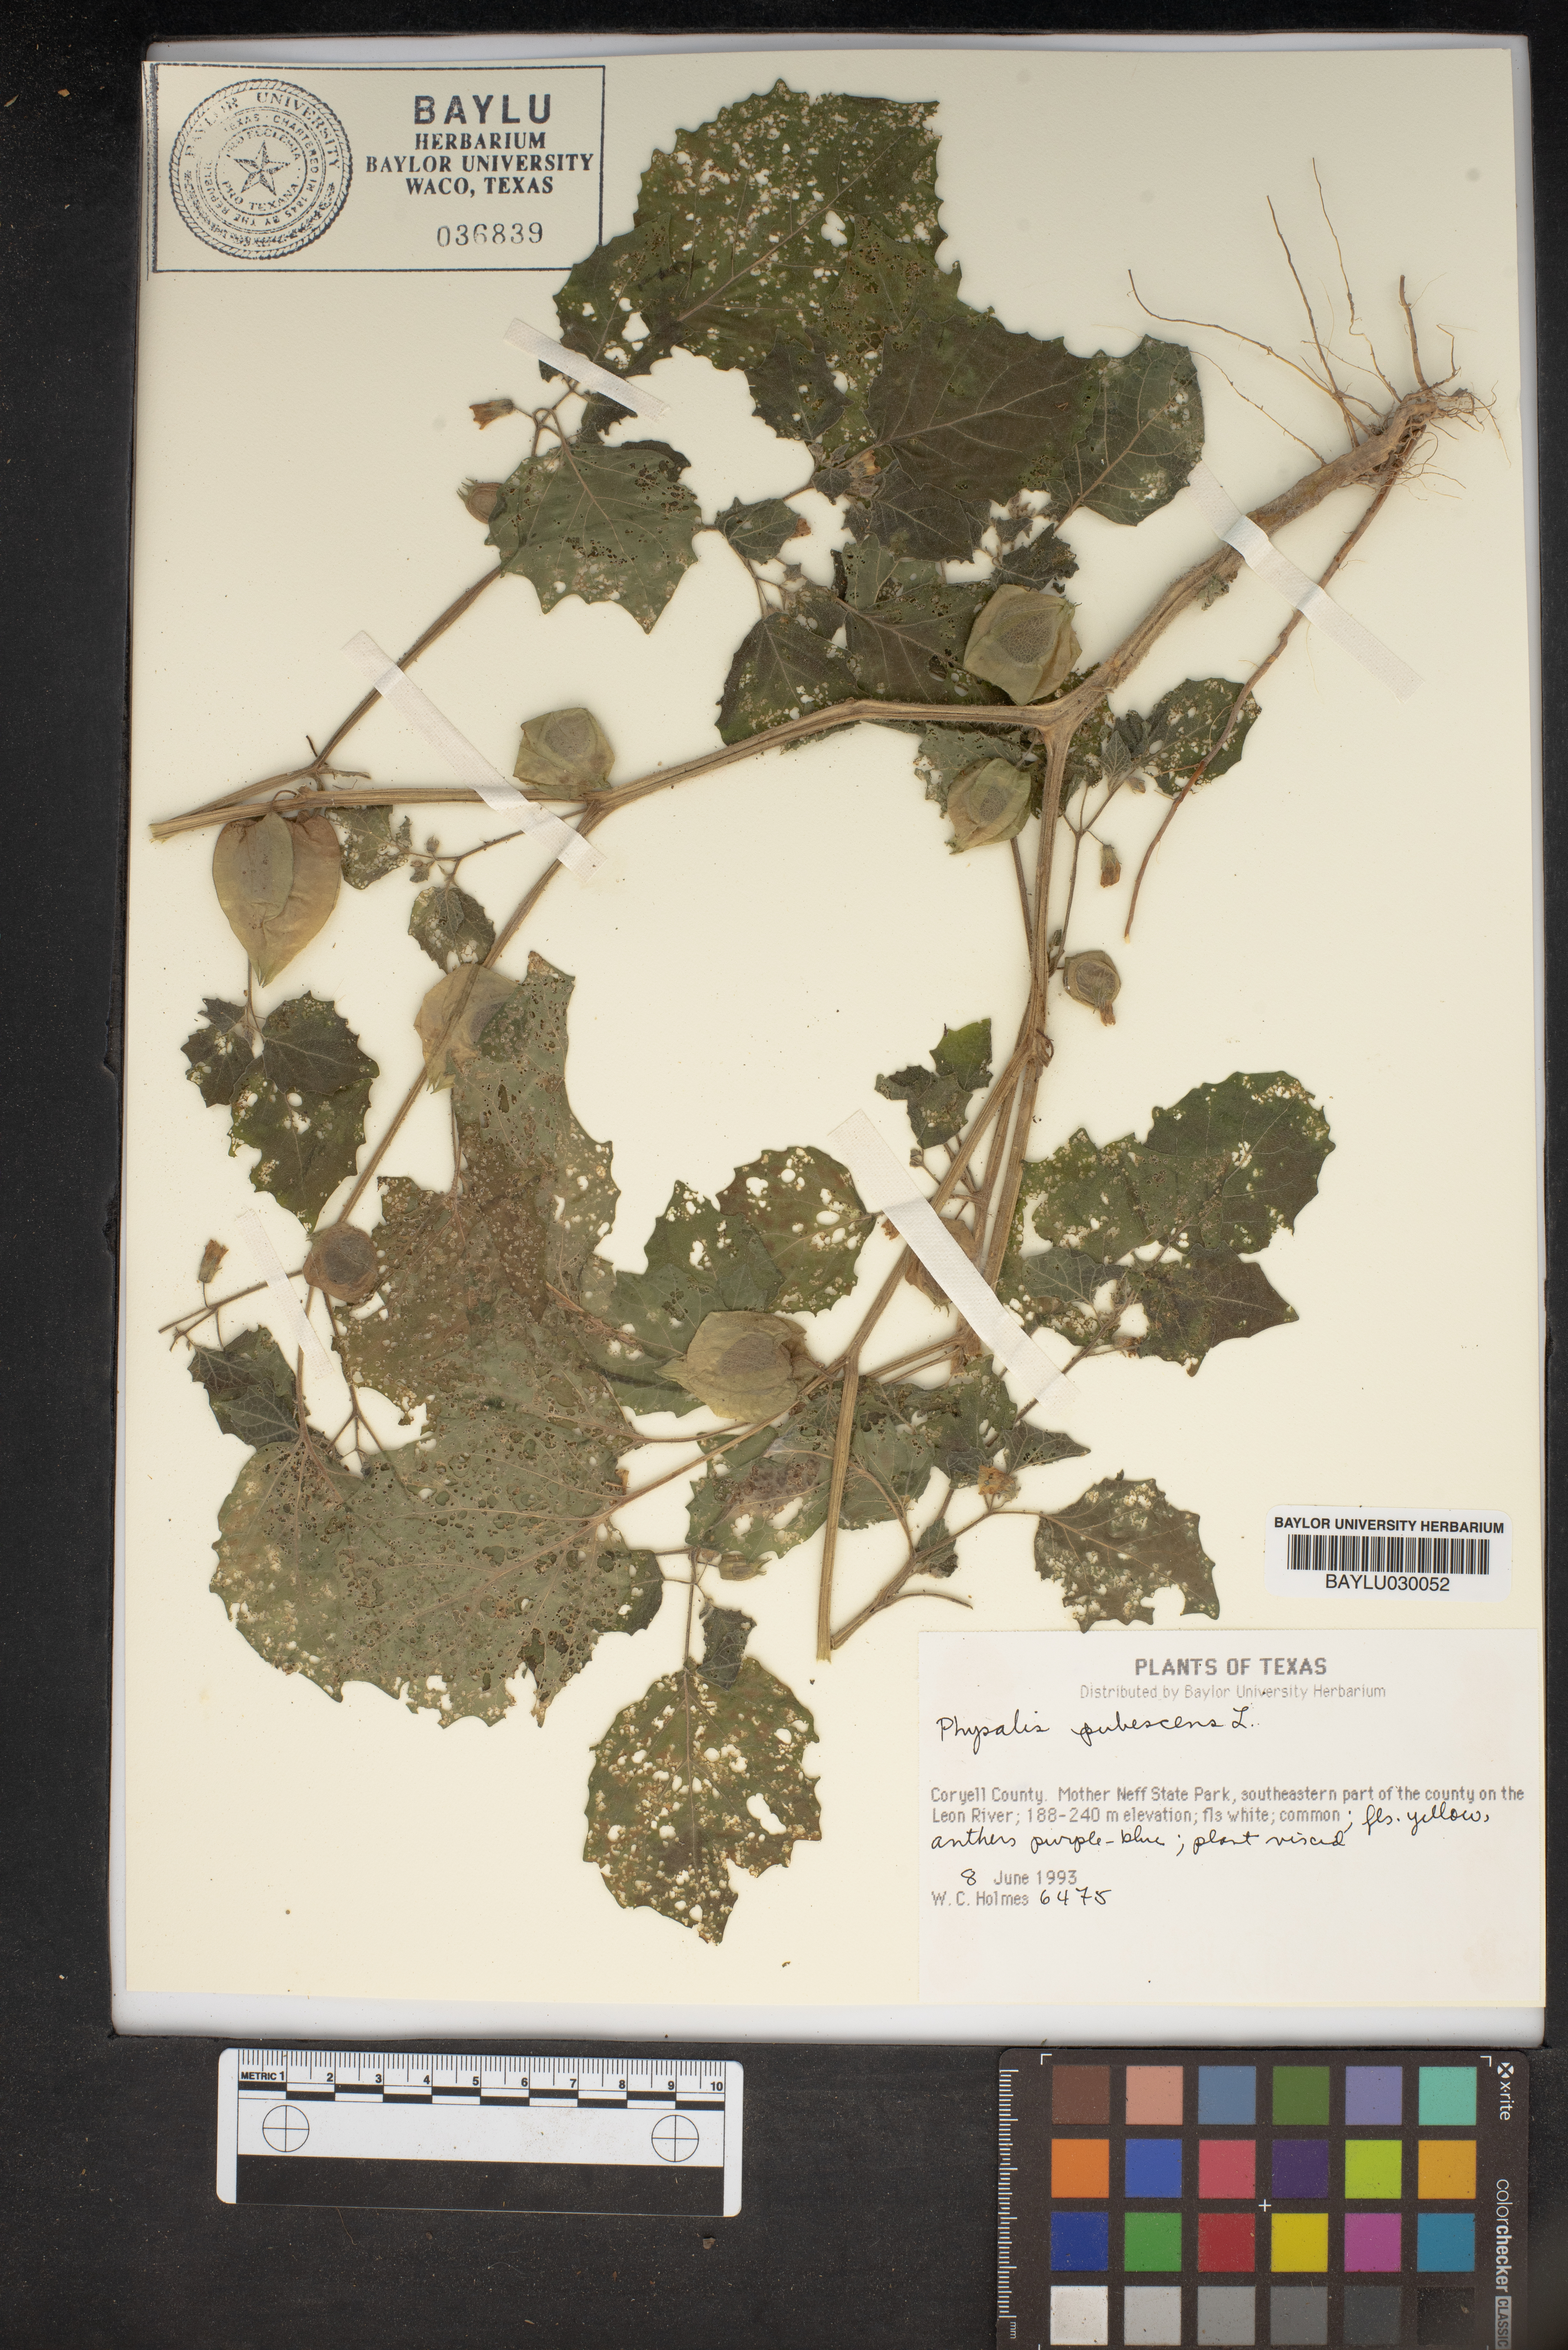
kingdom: Plantae
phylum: Tracheophyta
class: Magnoliopsida
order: Solanales
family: Solanaceae
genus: Physalis
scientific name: Physalis pubescens
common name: Downy ground-cherry
